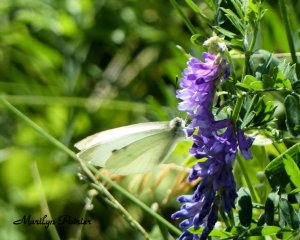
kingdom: Animalia
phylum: Arthropoda
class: Insecta
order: Lepidoptera
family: Pieridae
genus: Pieris
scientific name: Pieris rapae
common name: Cabbage White
